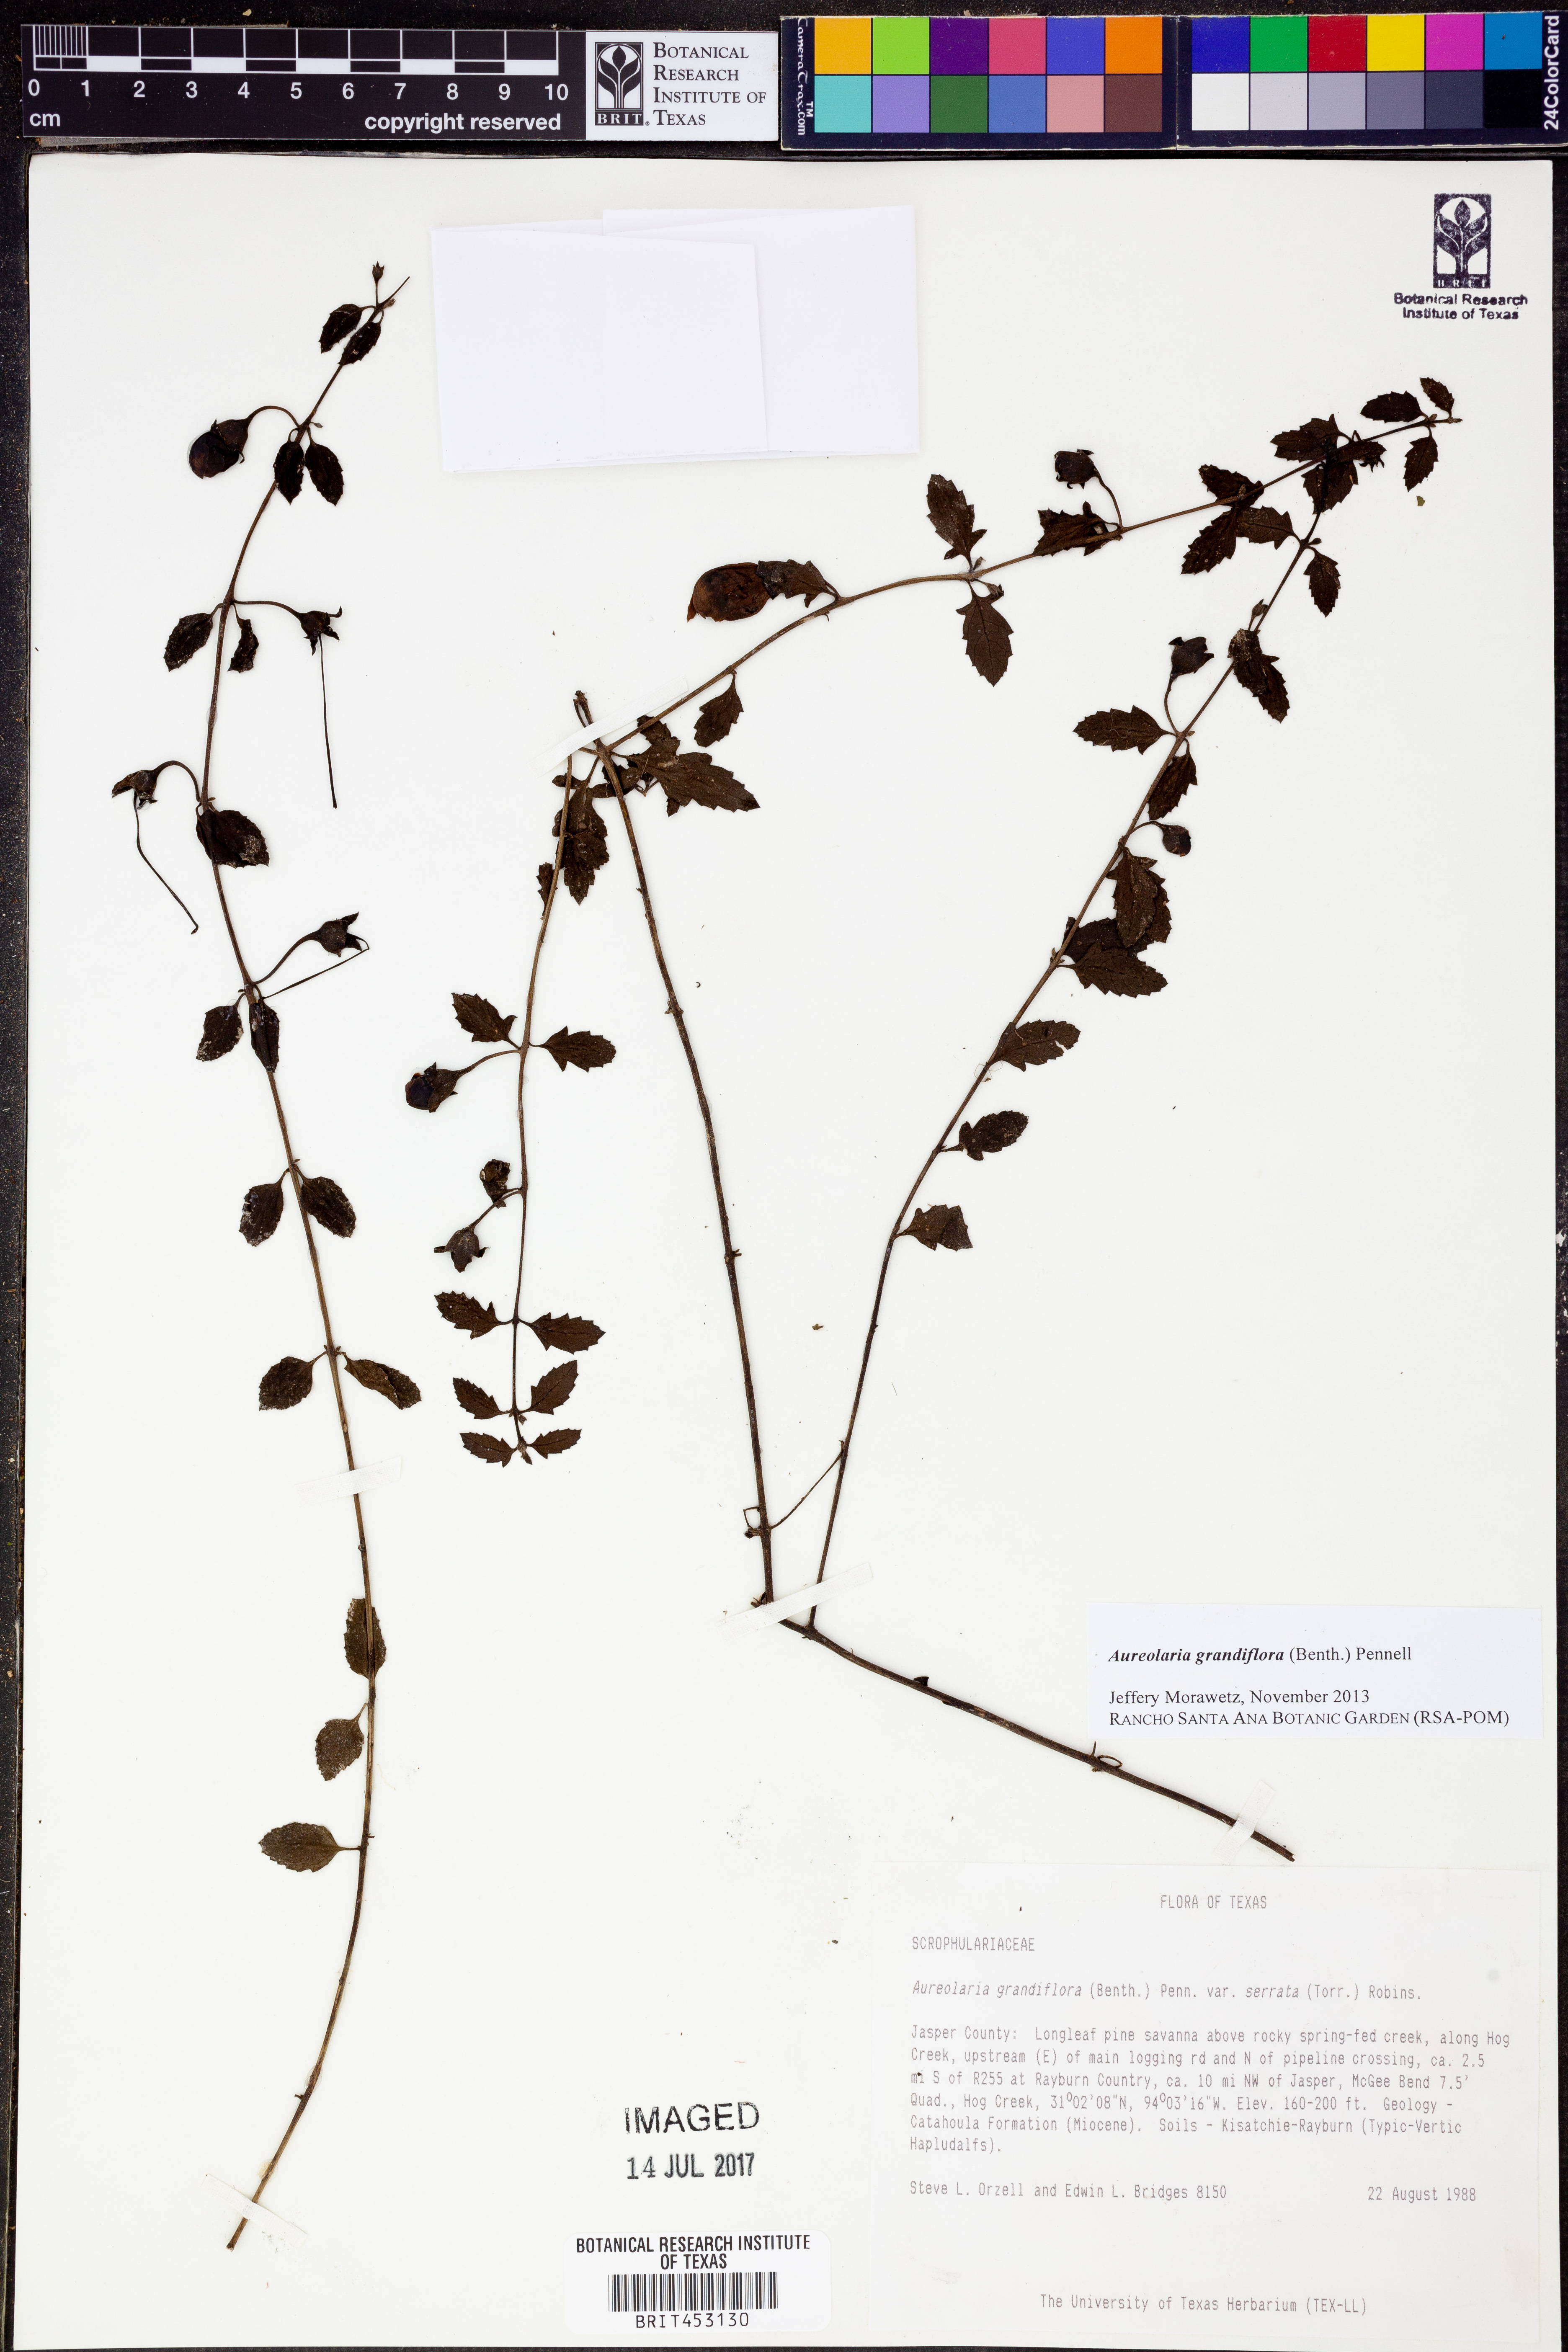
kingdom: Plantae
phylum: Tracheophyta
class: Magnoliopsida
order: Lamiales
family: Orobanchaceae
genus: Aureolaria
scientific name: Aureolaria grandiflora
